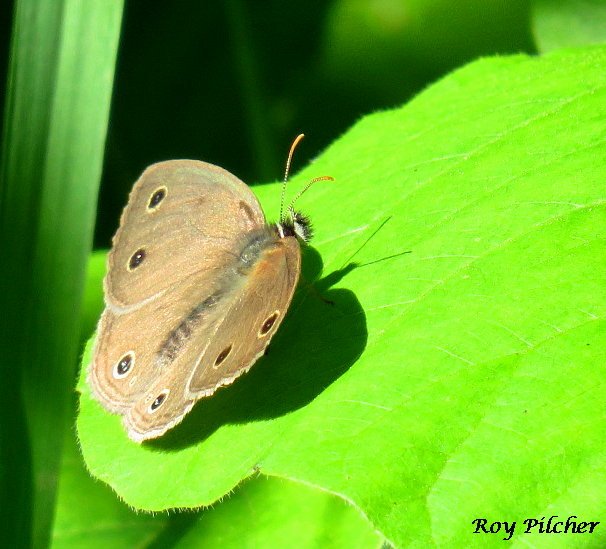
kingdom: Animalia
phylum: Arthropoda
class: Insecta
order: Lepidoptera
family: Nymphalidae
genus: Euptychia
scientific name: Euptychia cymela
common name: Little Wood Satyr
